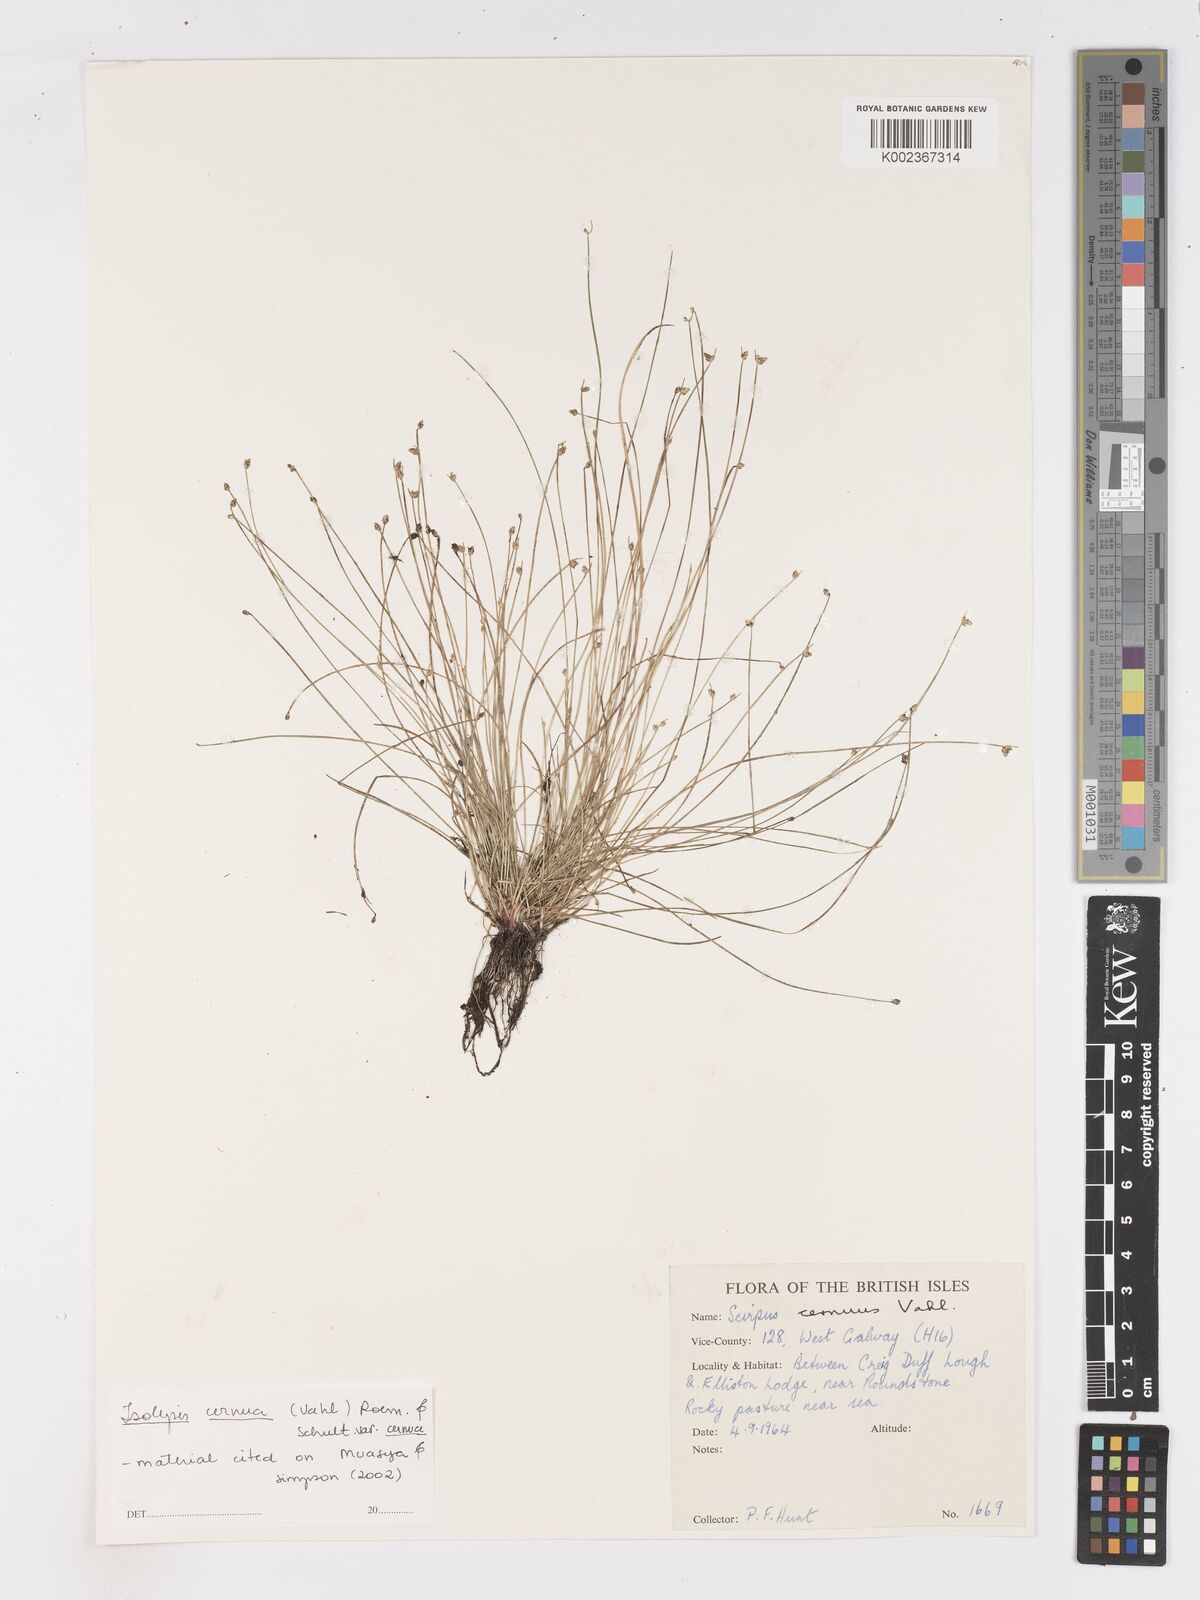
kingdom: Plantae
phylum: Tracheophyta
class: Liliopsida
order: Poales
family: Cyperaceae
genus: Isolepis
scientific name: Isolepis cernua
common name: Slender club-rush
